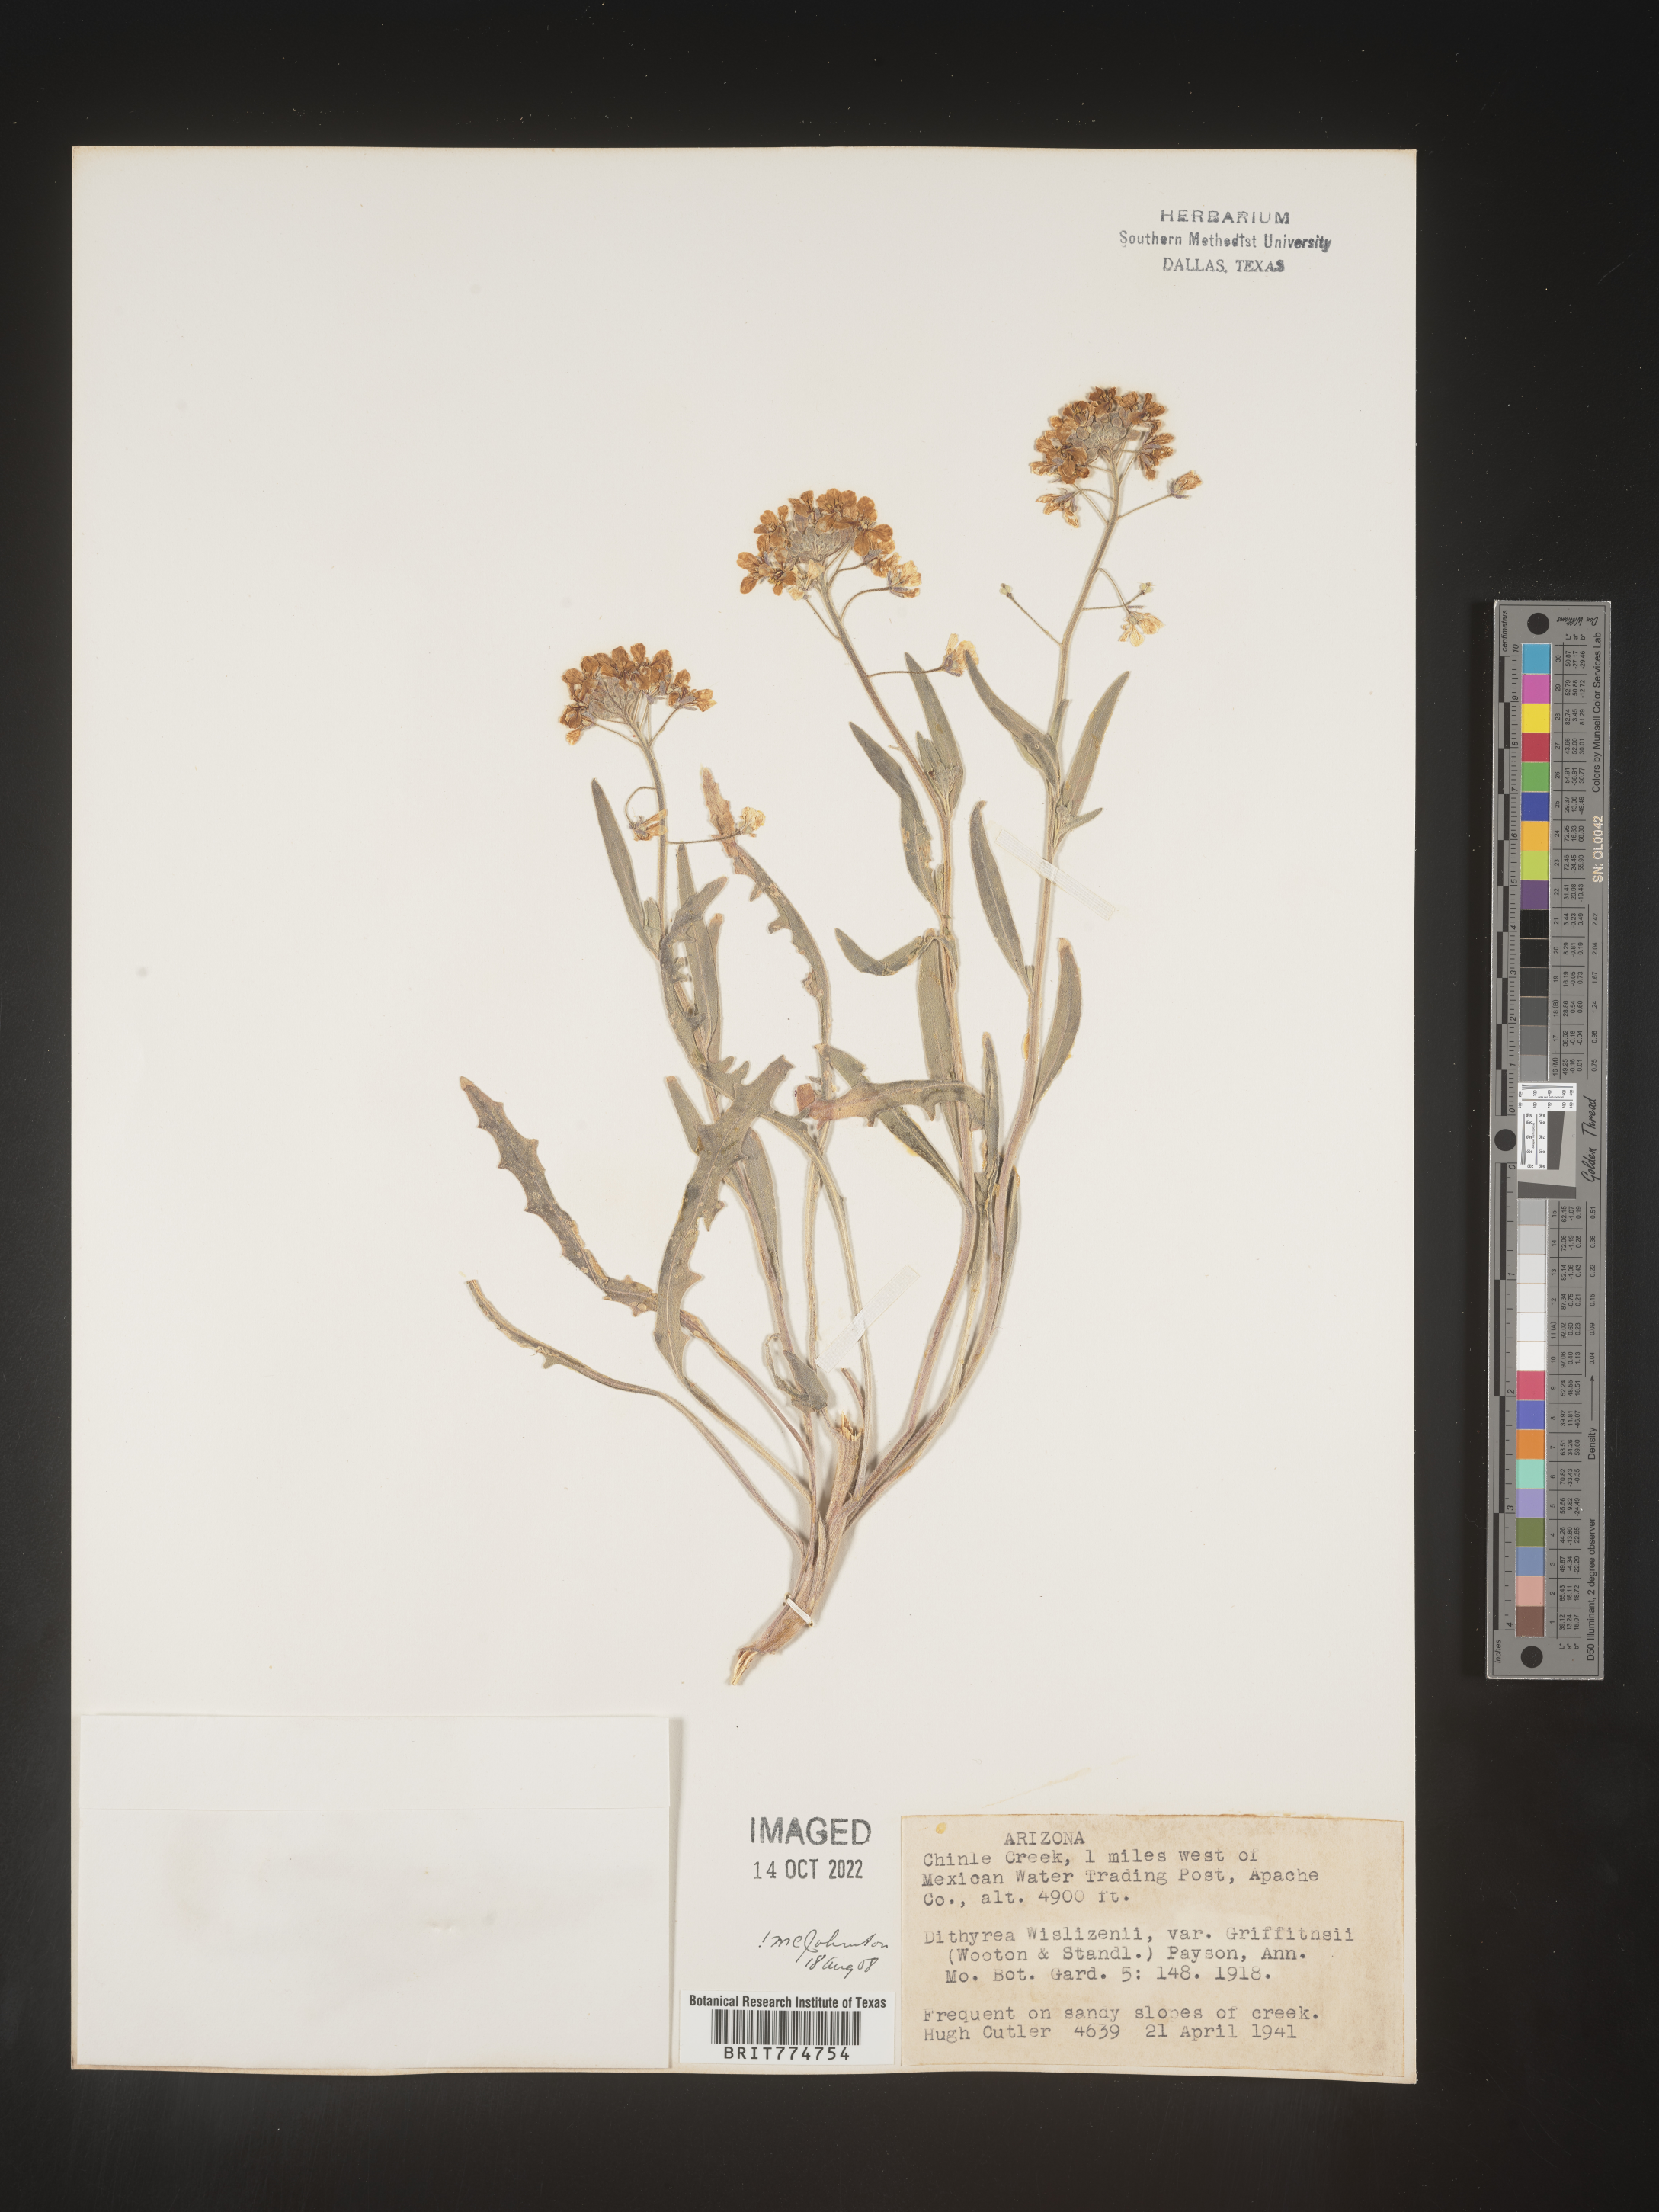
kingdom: Plantae
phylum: Tracheophyta
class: Magnoliopsida
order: Brassicales
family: Brassicaceae
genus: Dimorphocarpa
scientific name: Dimorphocarpa wislizenii
